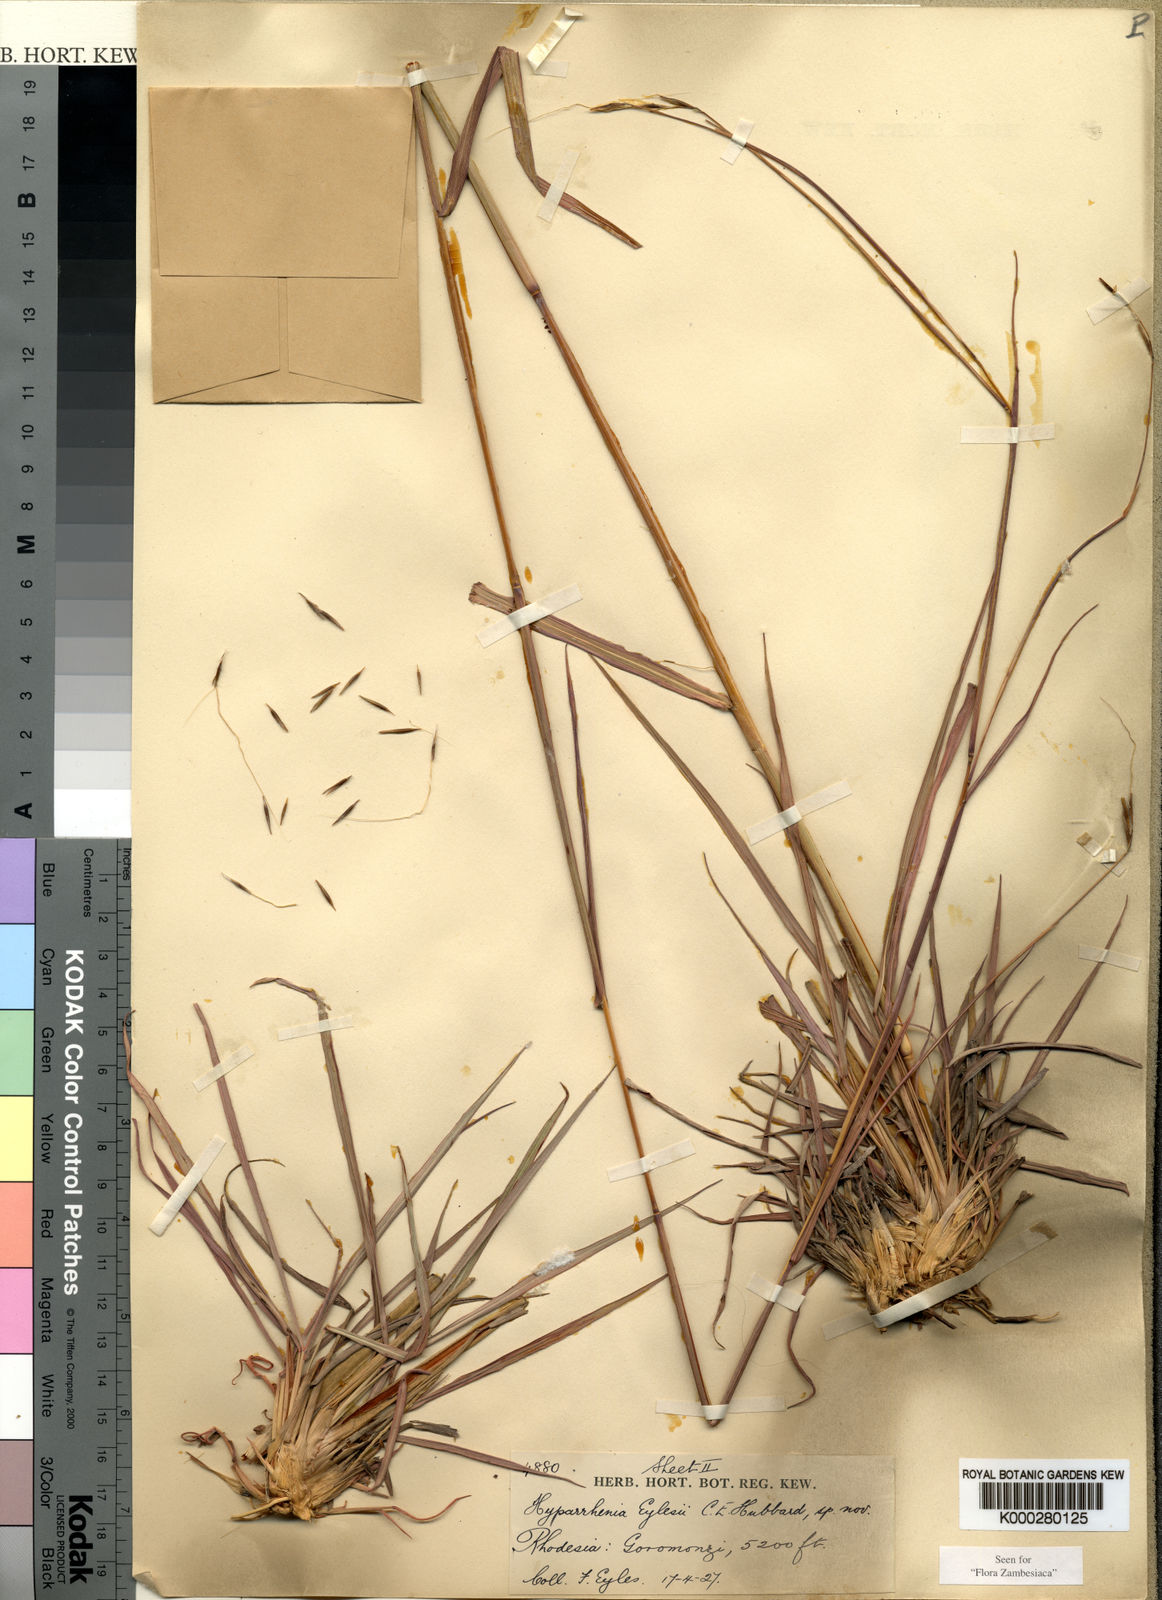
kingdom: Plantae
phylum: Tracheophyta
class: Liliopsida
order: Poales
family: Poaceae
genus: Elymandra
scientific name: Elymandra grallata
